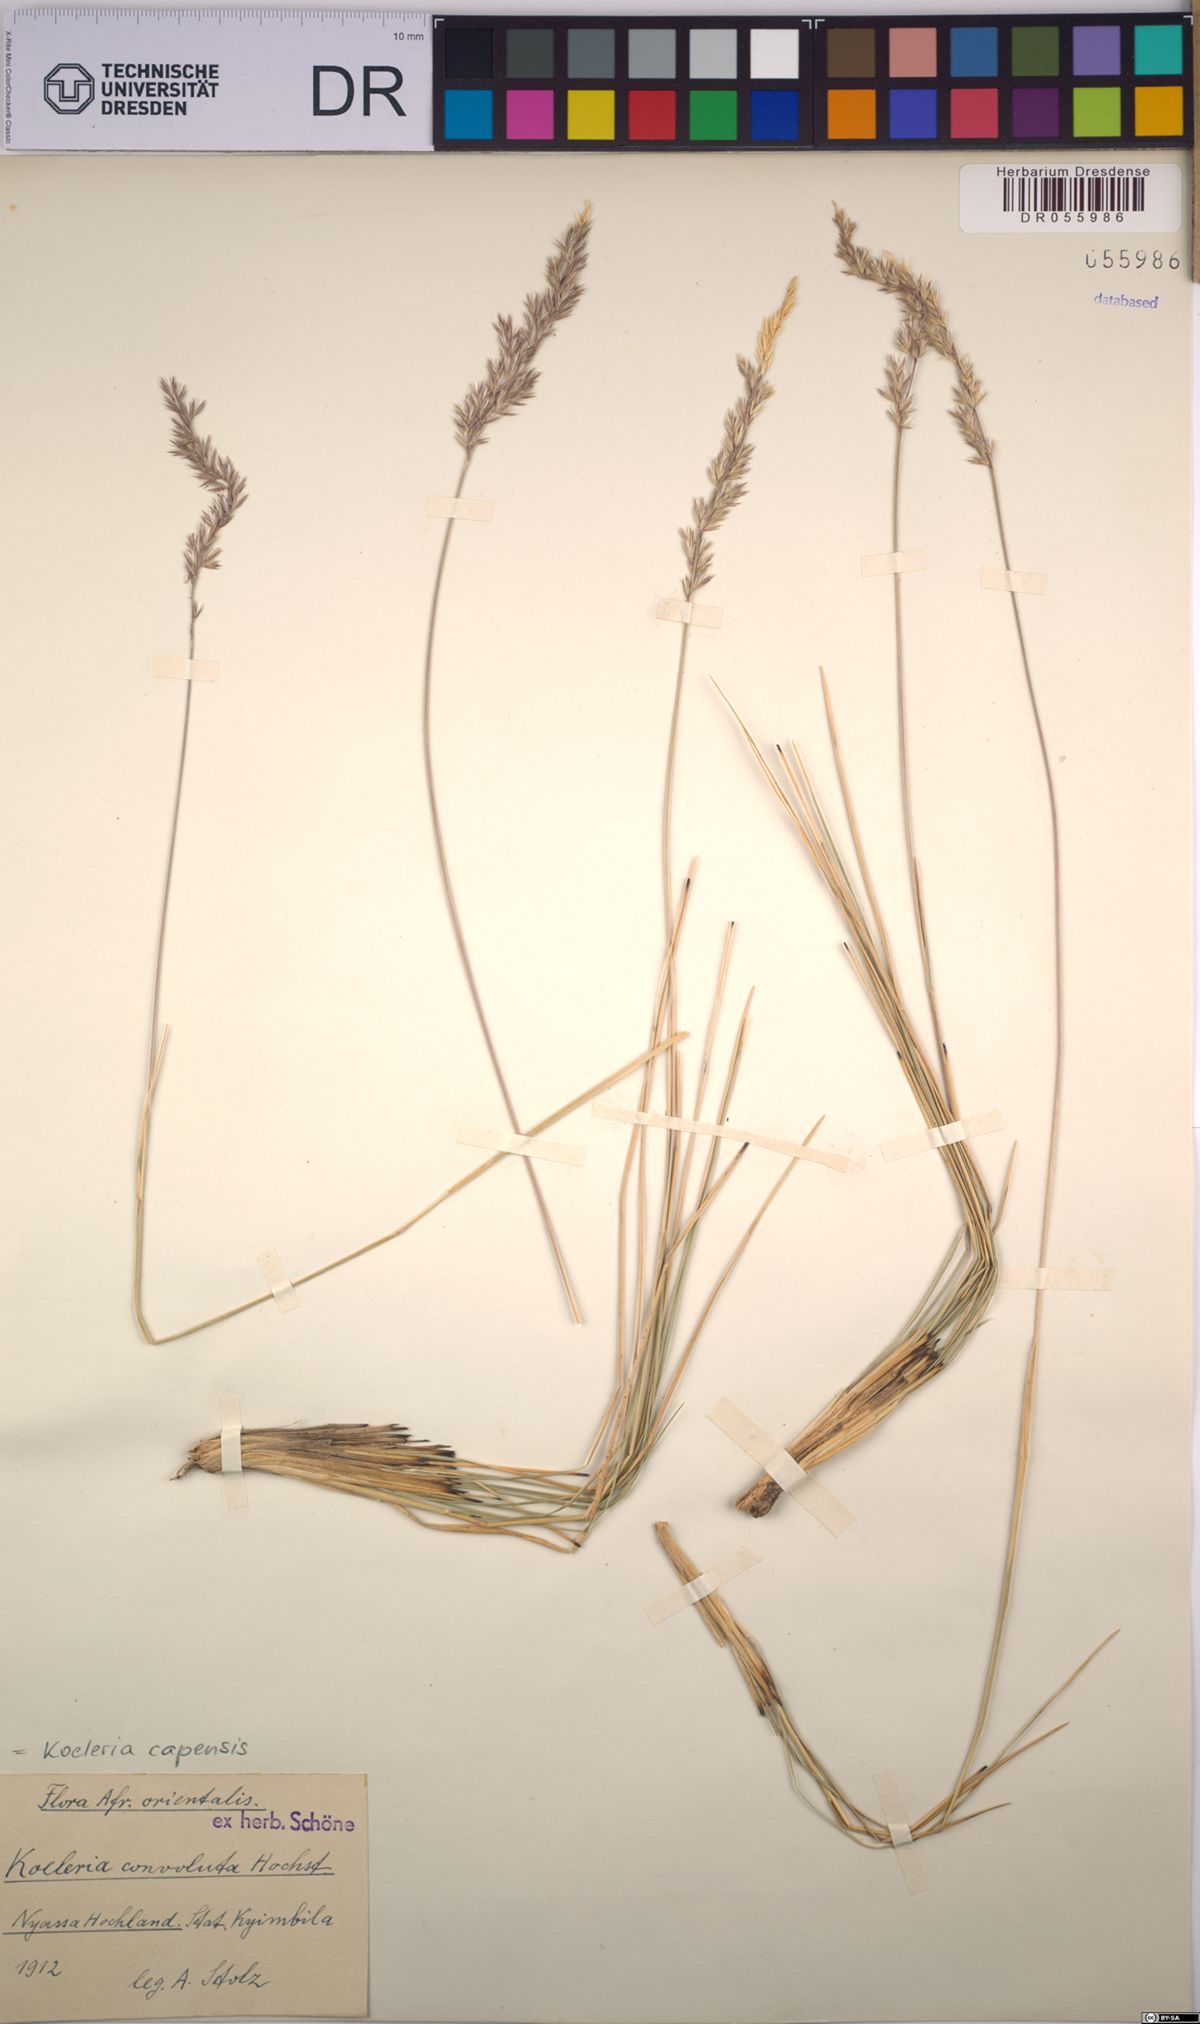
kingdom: Plantae
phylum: Tracheophyta
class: Liliopsida
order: Poales
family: Poaceae
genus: Koeleria
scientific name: Koeleria capensis
